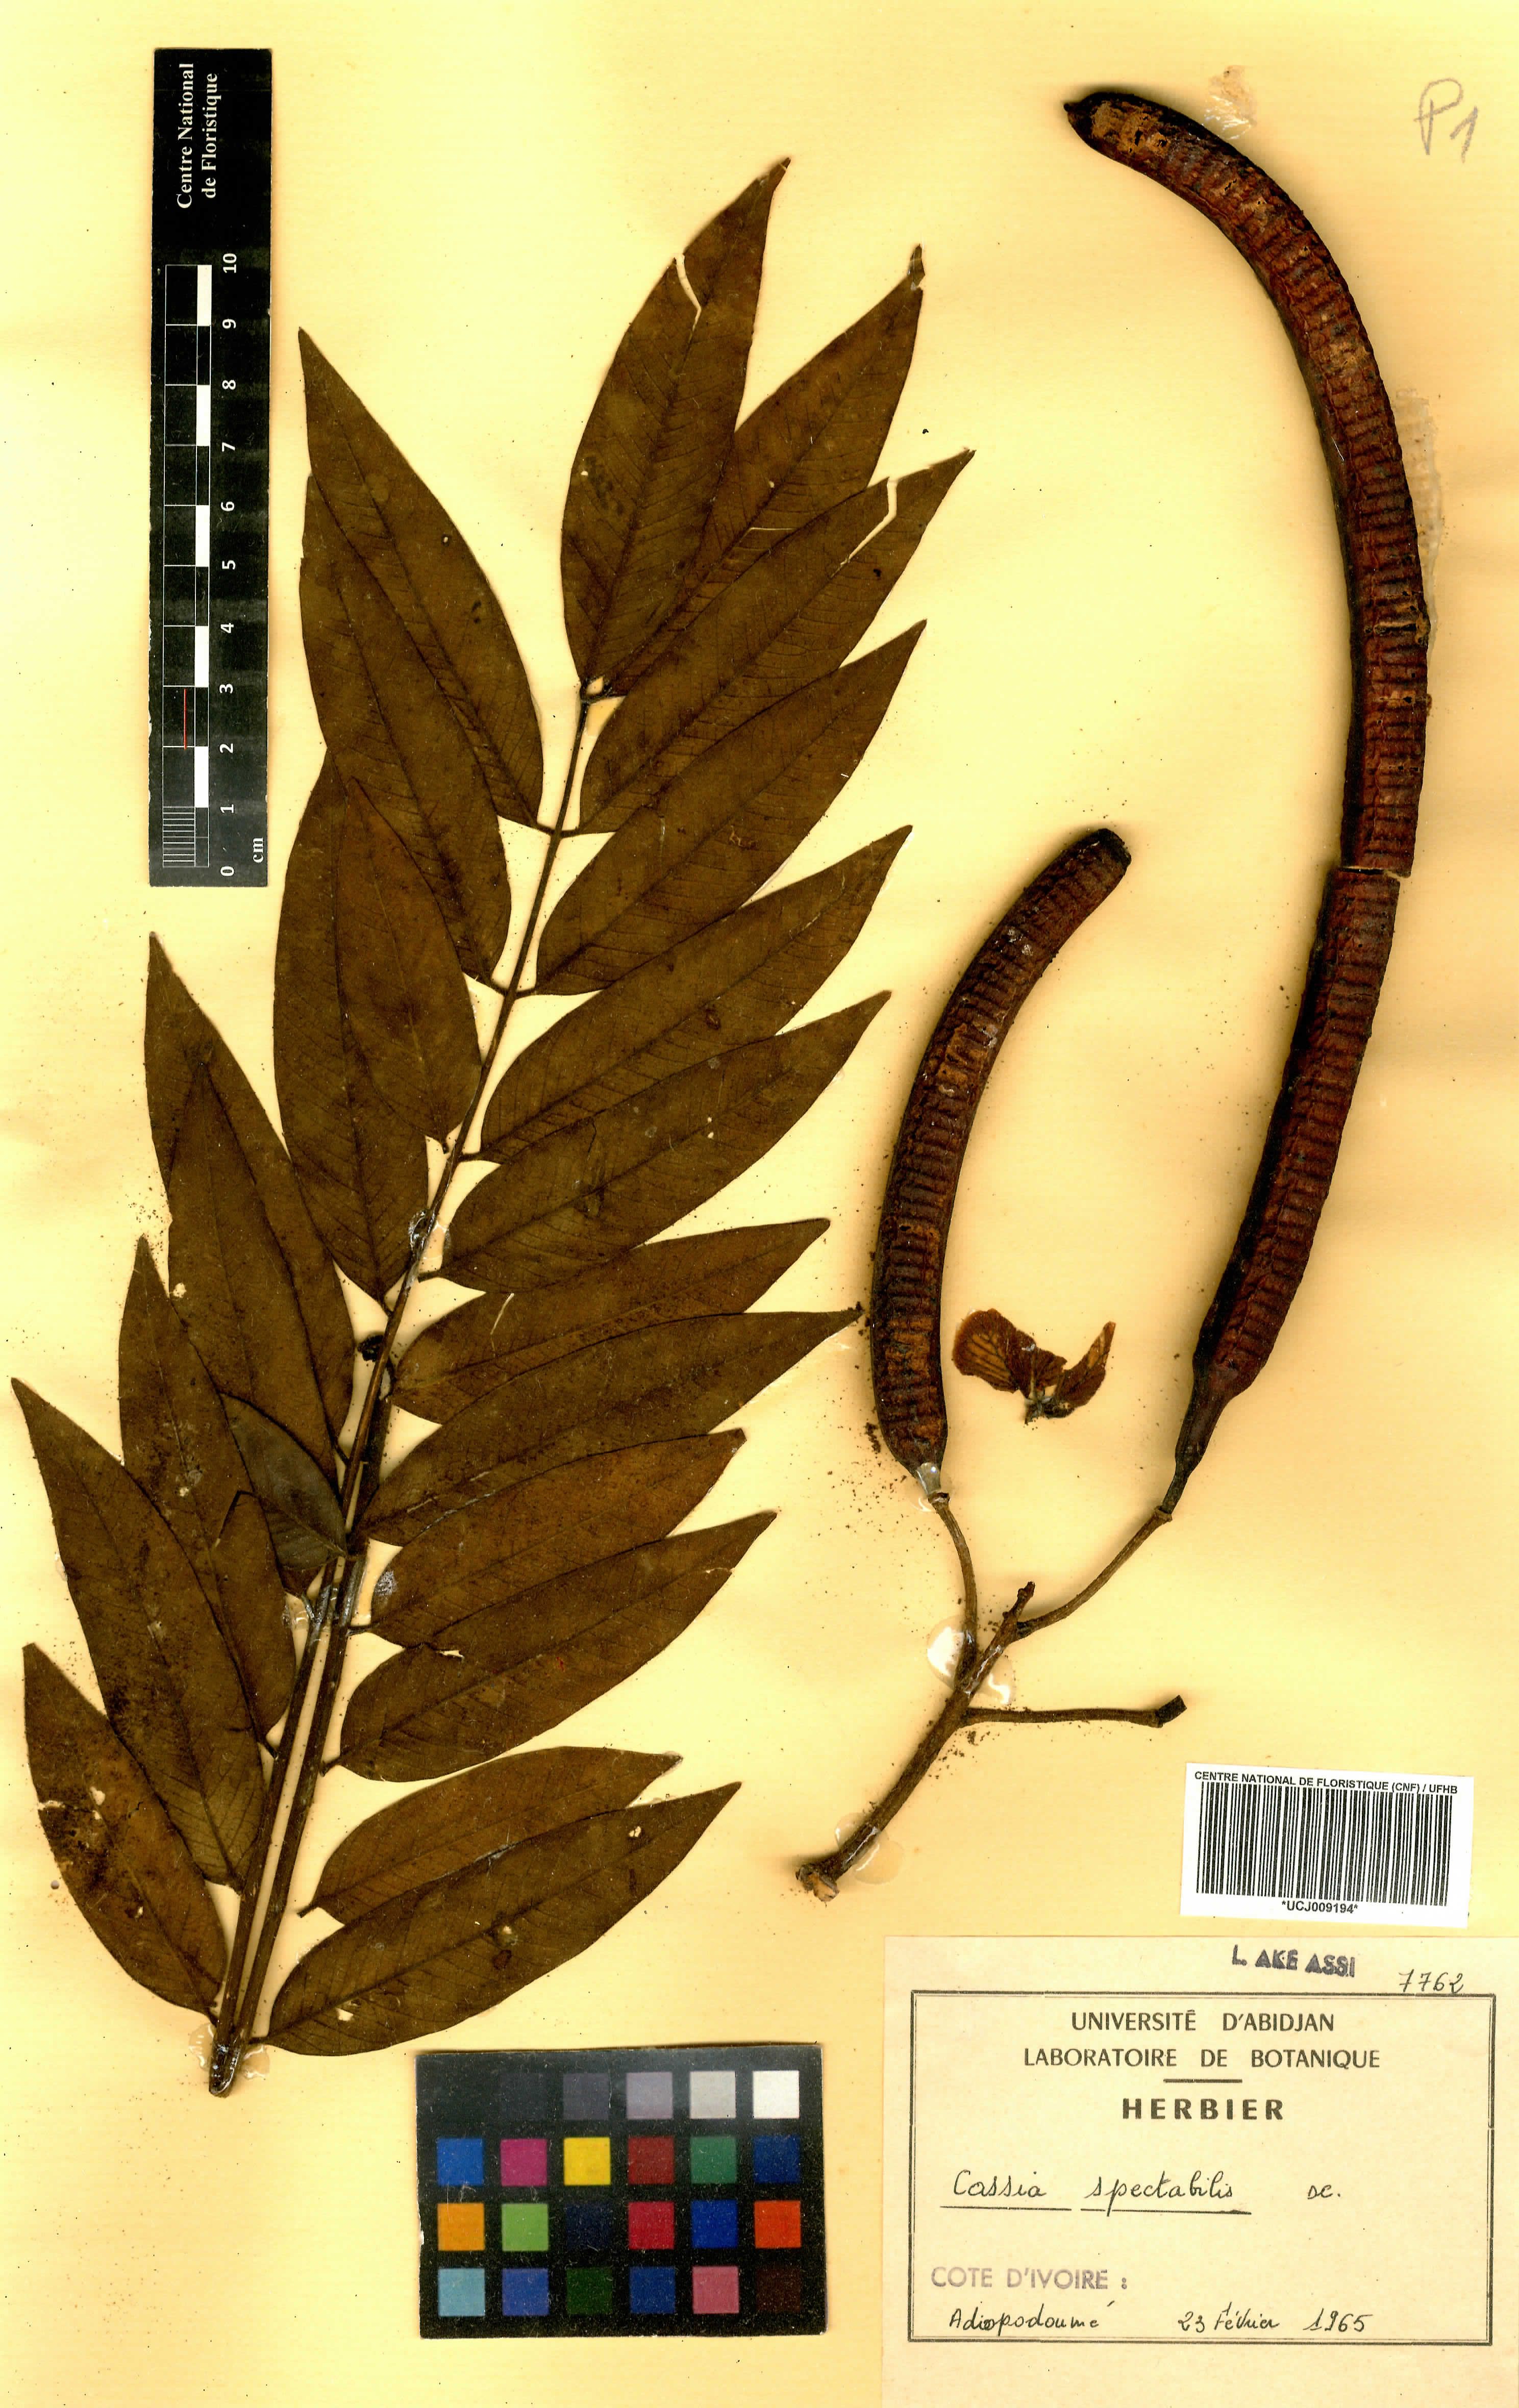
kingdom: Plantae
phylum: Tracheophyta
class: Magnoliopsida
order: Fabales
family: Fabaceae
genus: Senna
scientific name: Senna spectabilis
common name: Casia amarilla
